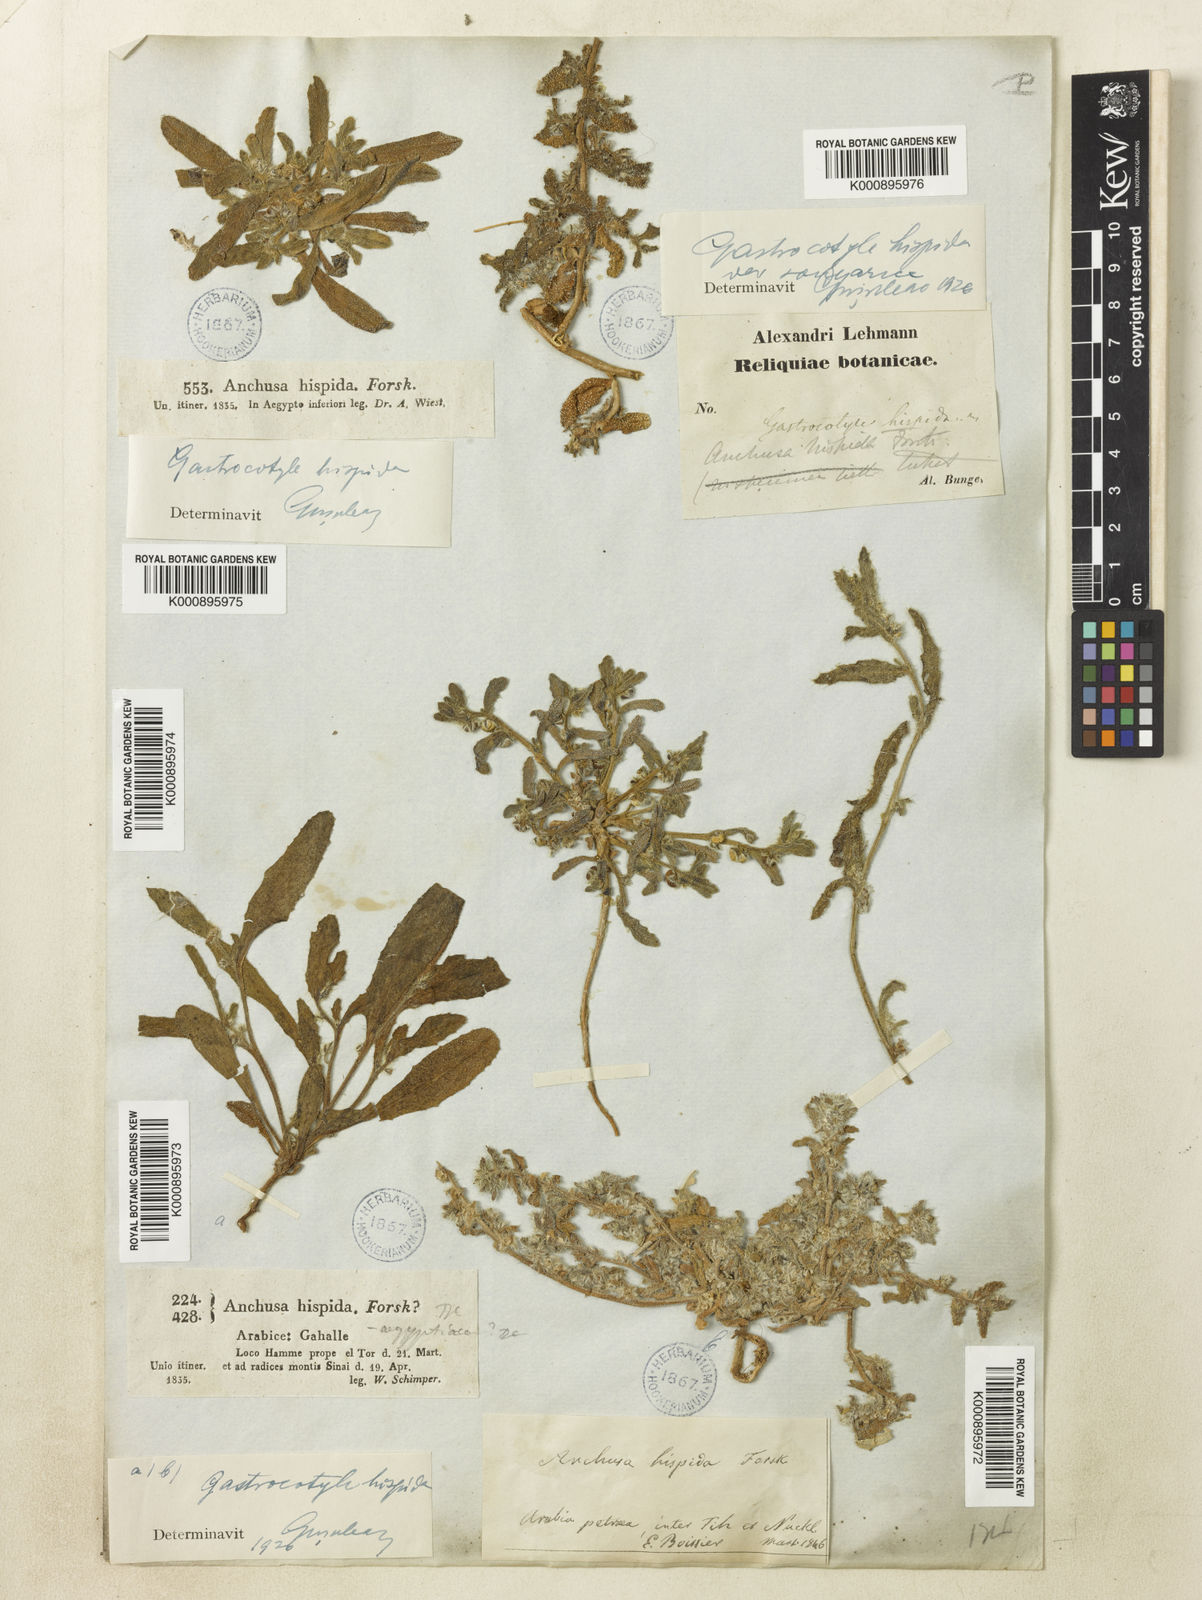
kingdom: Plantae
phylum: Tracheophyta
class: Magnoliopsida
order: Boraginales
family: Boraginaceae
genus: Phyllocara
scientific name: Phyllocara
